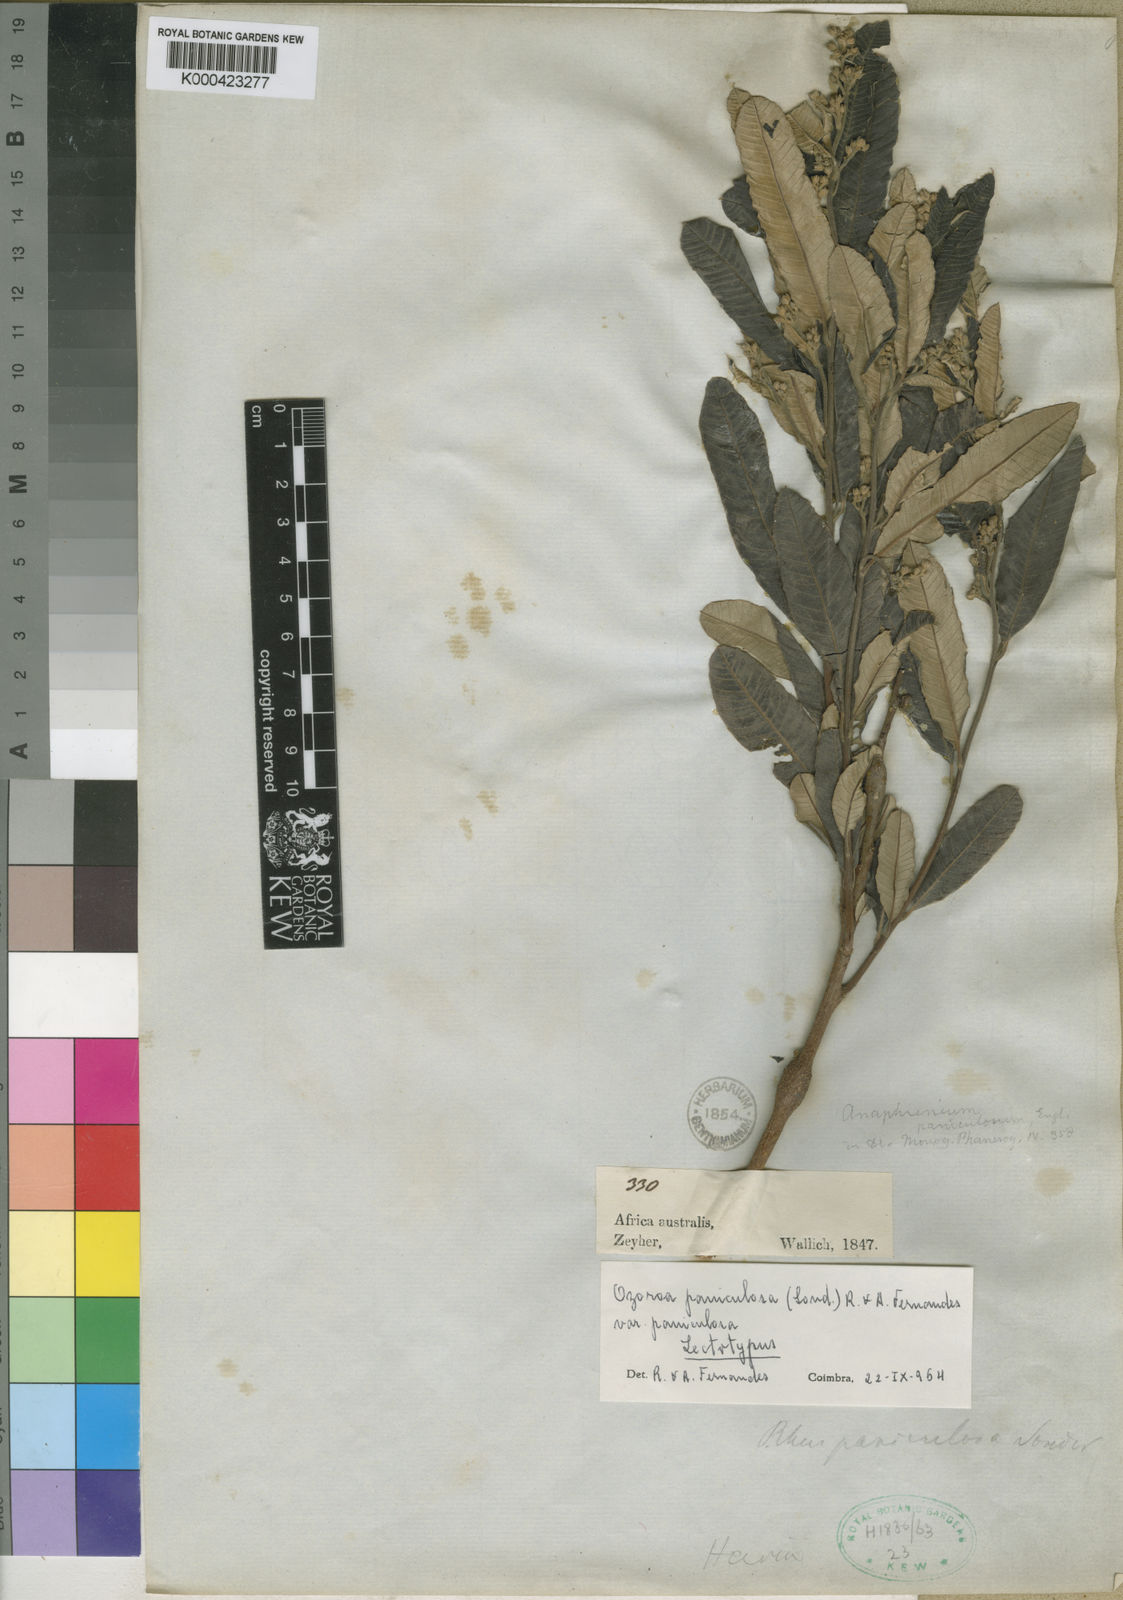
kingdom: Plantae
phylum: Tracheophyta
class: Magnoliopsida
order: Sapindales
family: Anacardiaceae
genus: Ozoroa
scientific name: Ozoroa paniculosa
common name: Bushveld ozoroa
